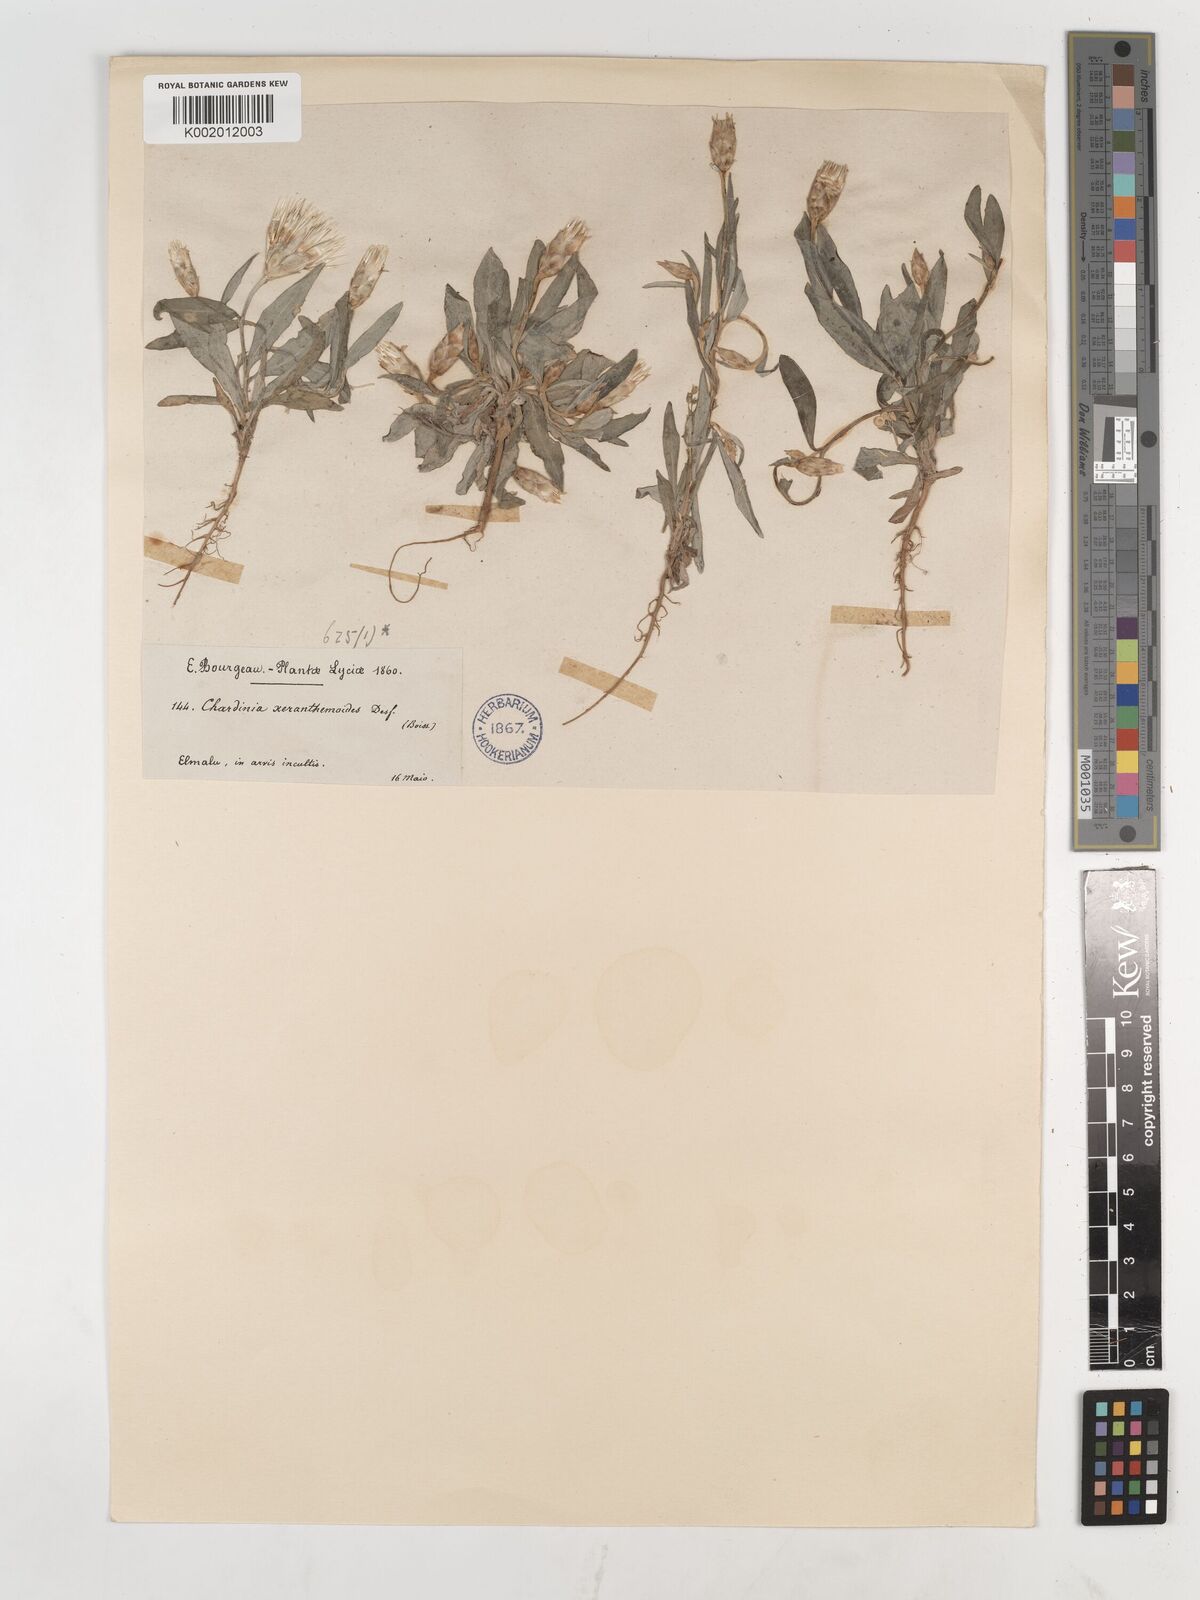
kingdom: Plantae
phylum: Tracheophyta
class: Magnoliopsida
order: Asterales
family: Asteraceae
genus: Chardinia
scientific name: Chardinia orientalis
